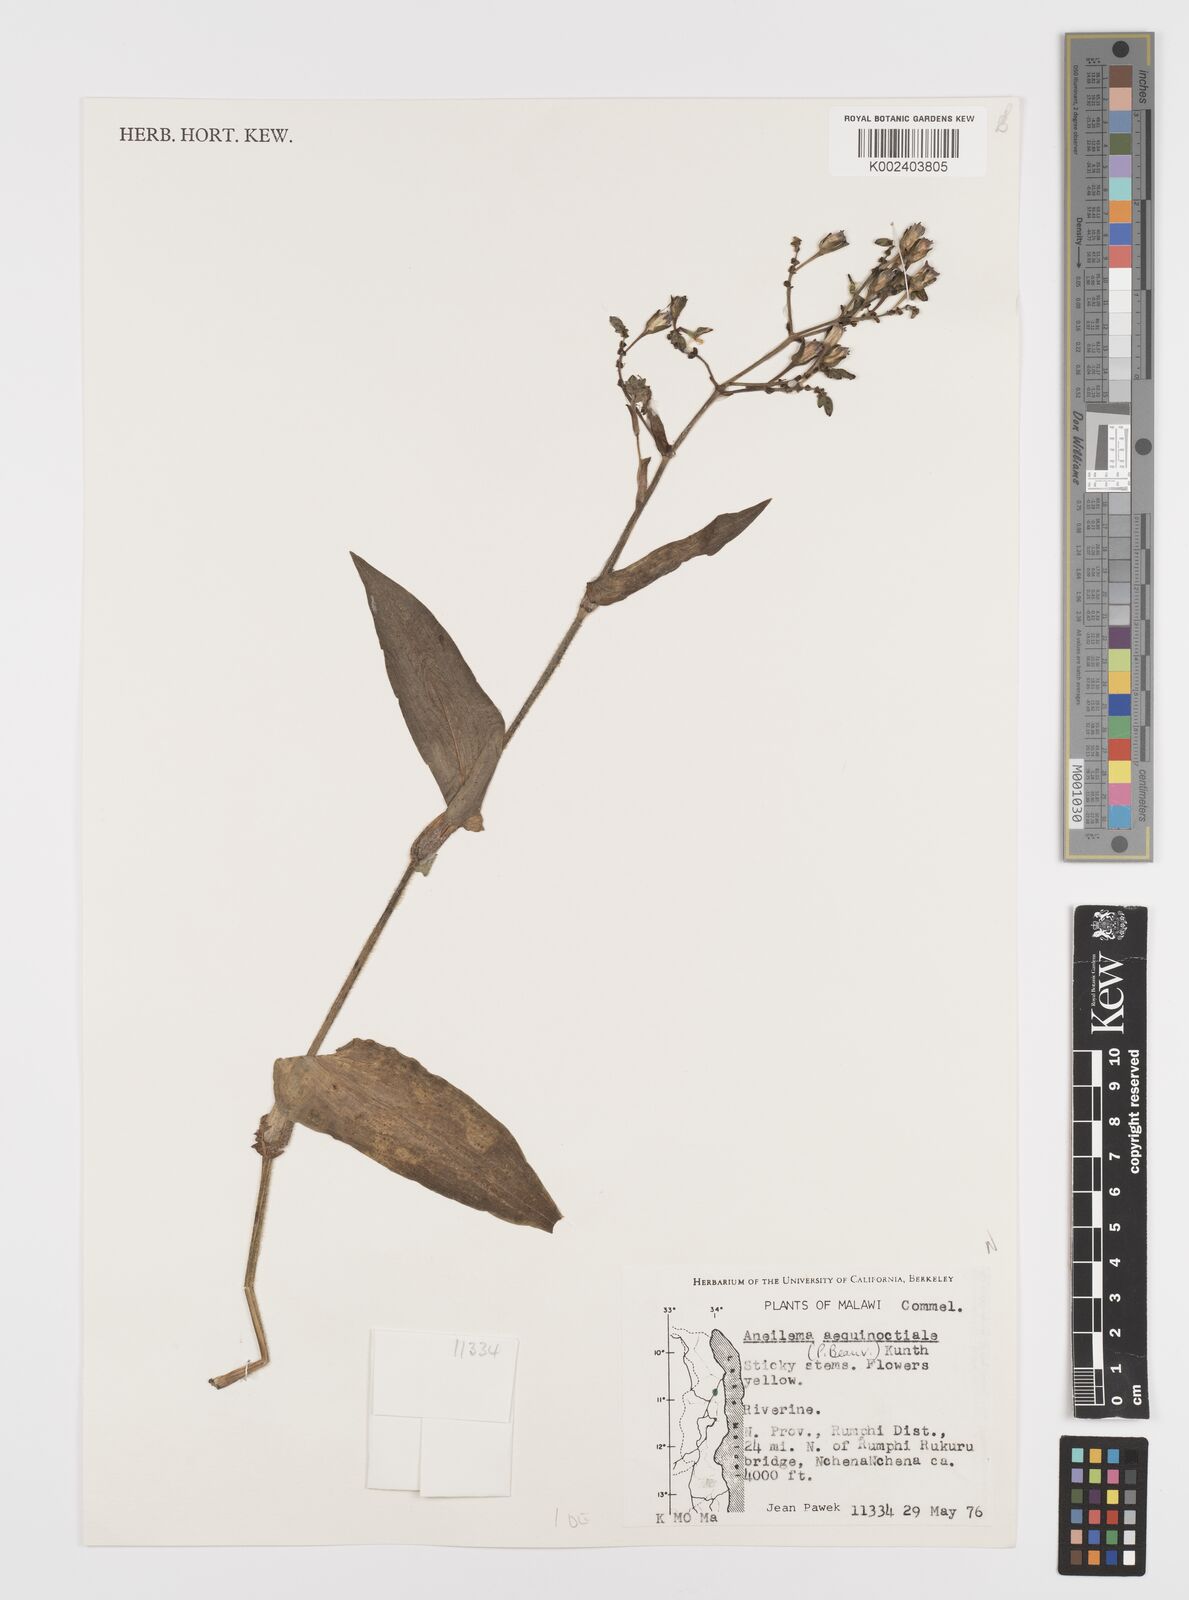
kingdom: Plantae
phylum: Tracheophyta
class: Liliopsida
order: Commelinales
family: Commelinaceae
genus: Aneilema
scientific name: Aneilema aequinoctiale
